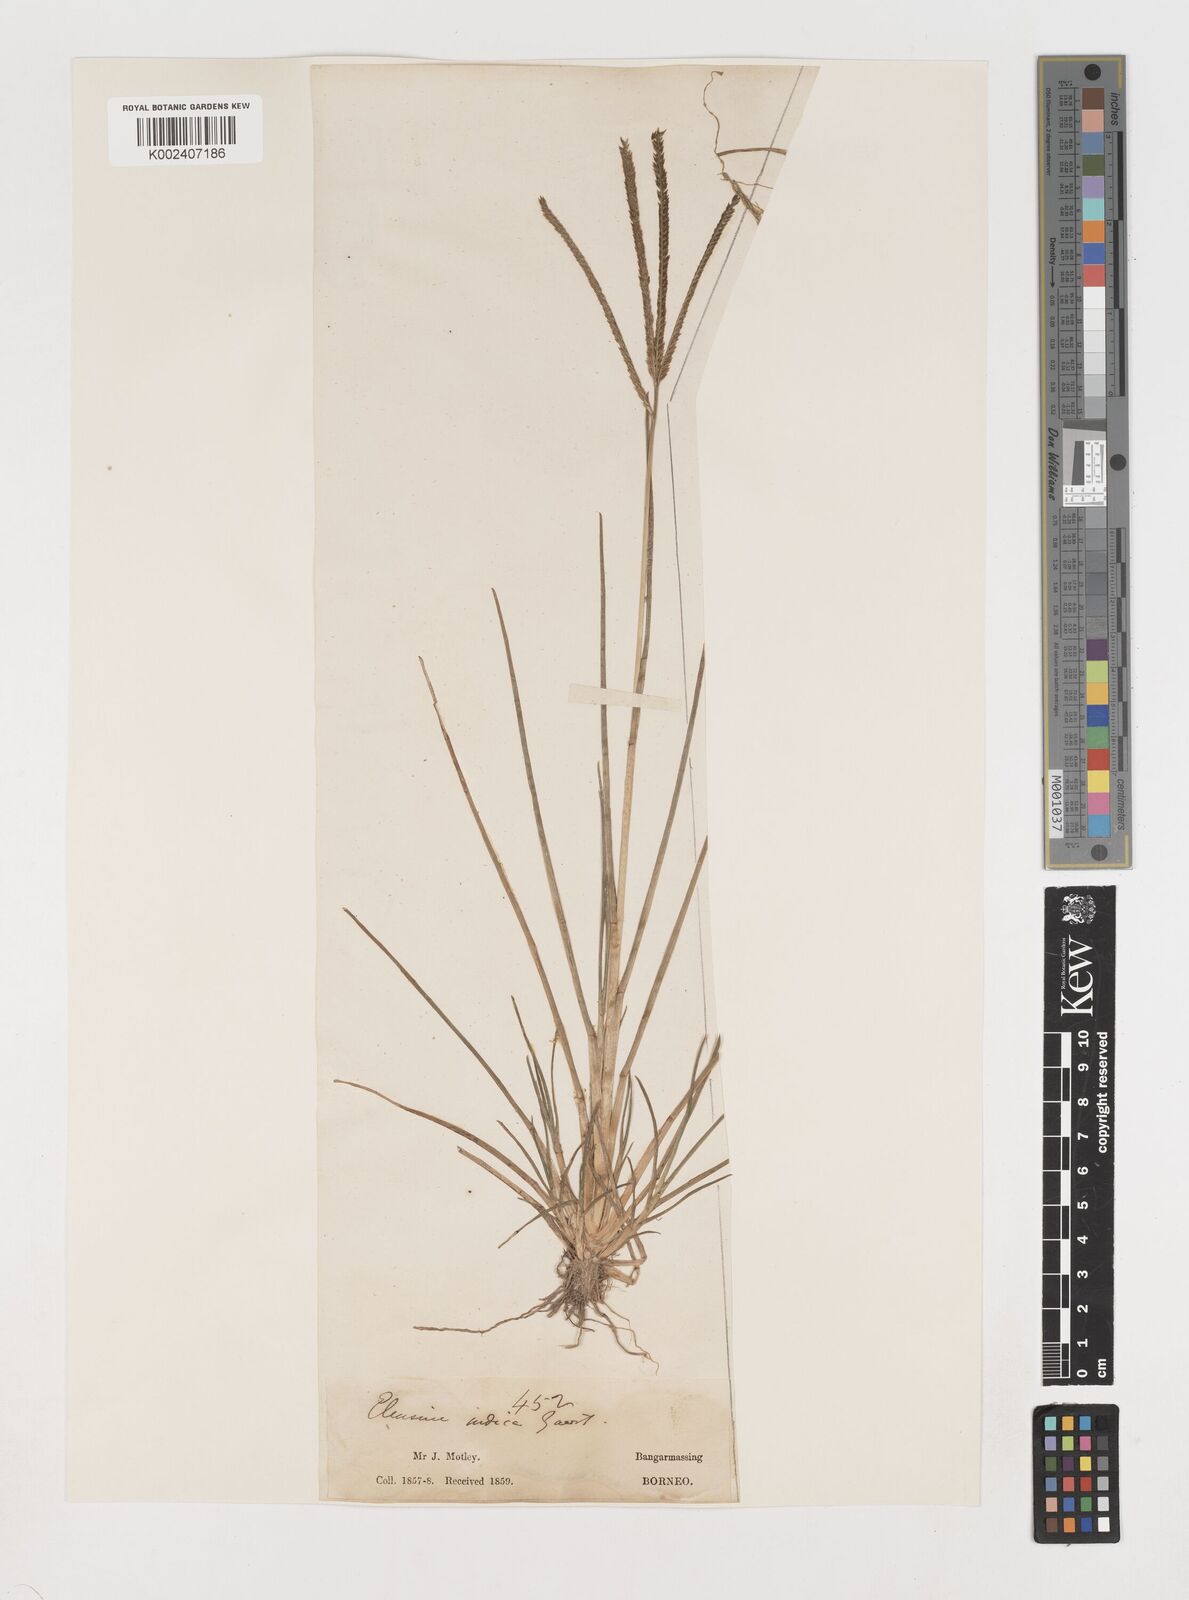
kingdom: Plantae
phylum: Tracheophyta
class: Liliopsida
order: Poales
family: Poaceae
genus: Eleusine
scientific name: Eleusine indica
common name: Yard-grass
